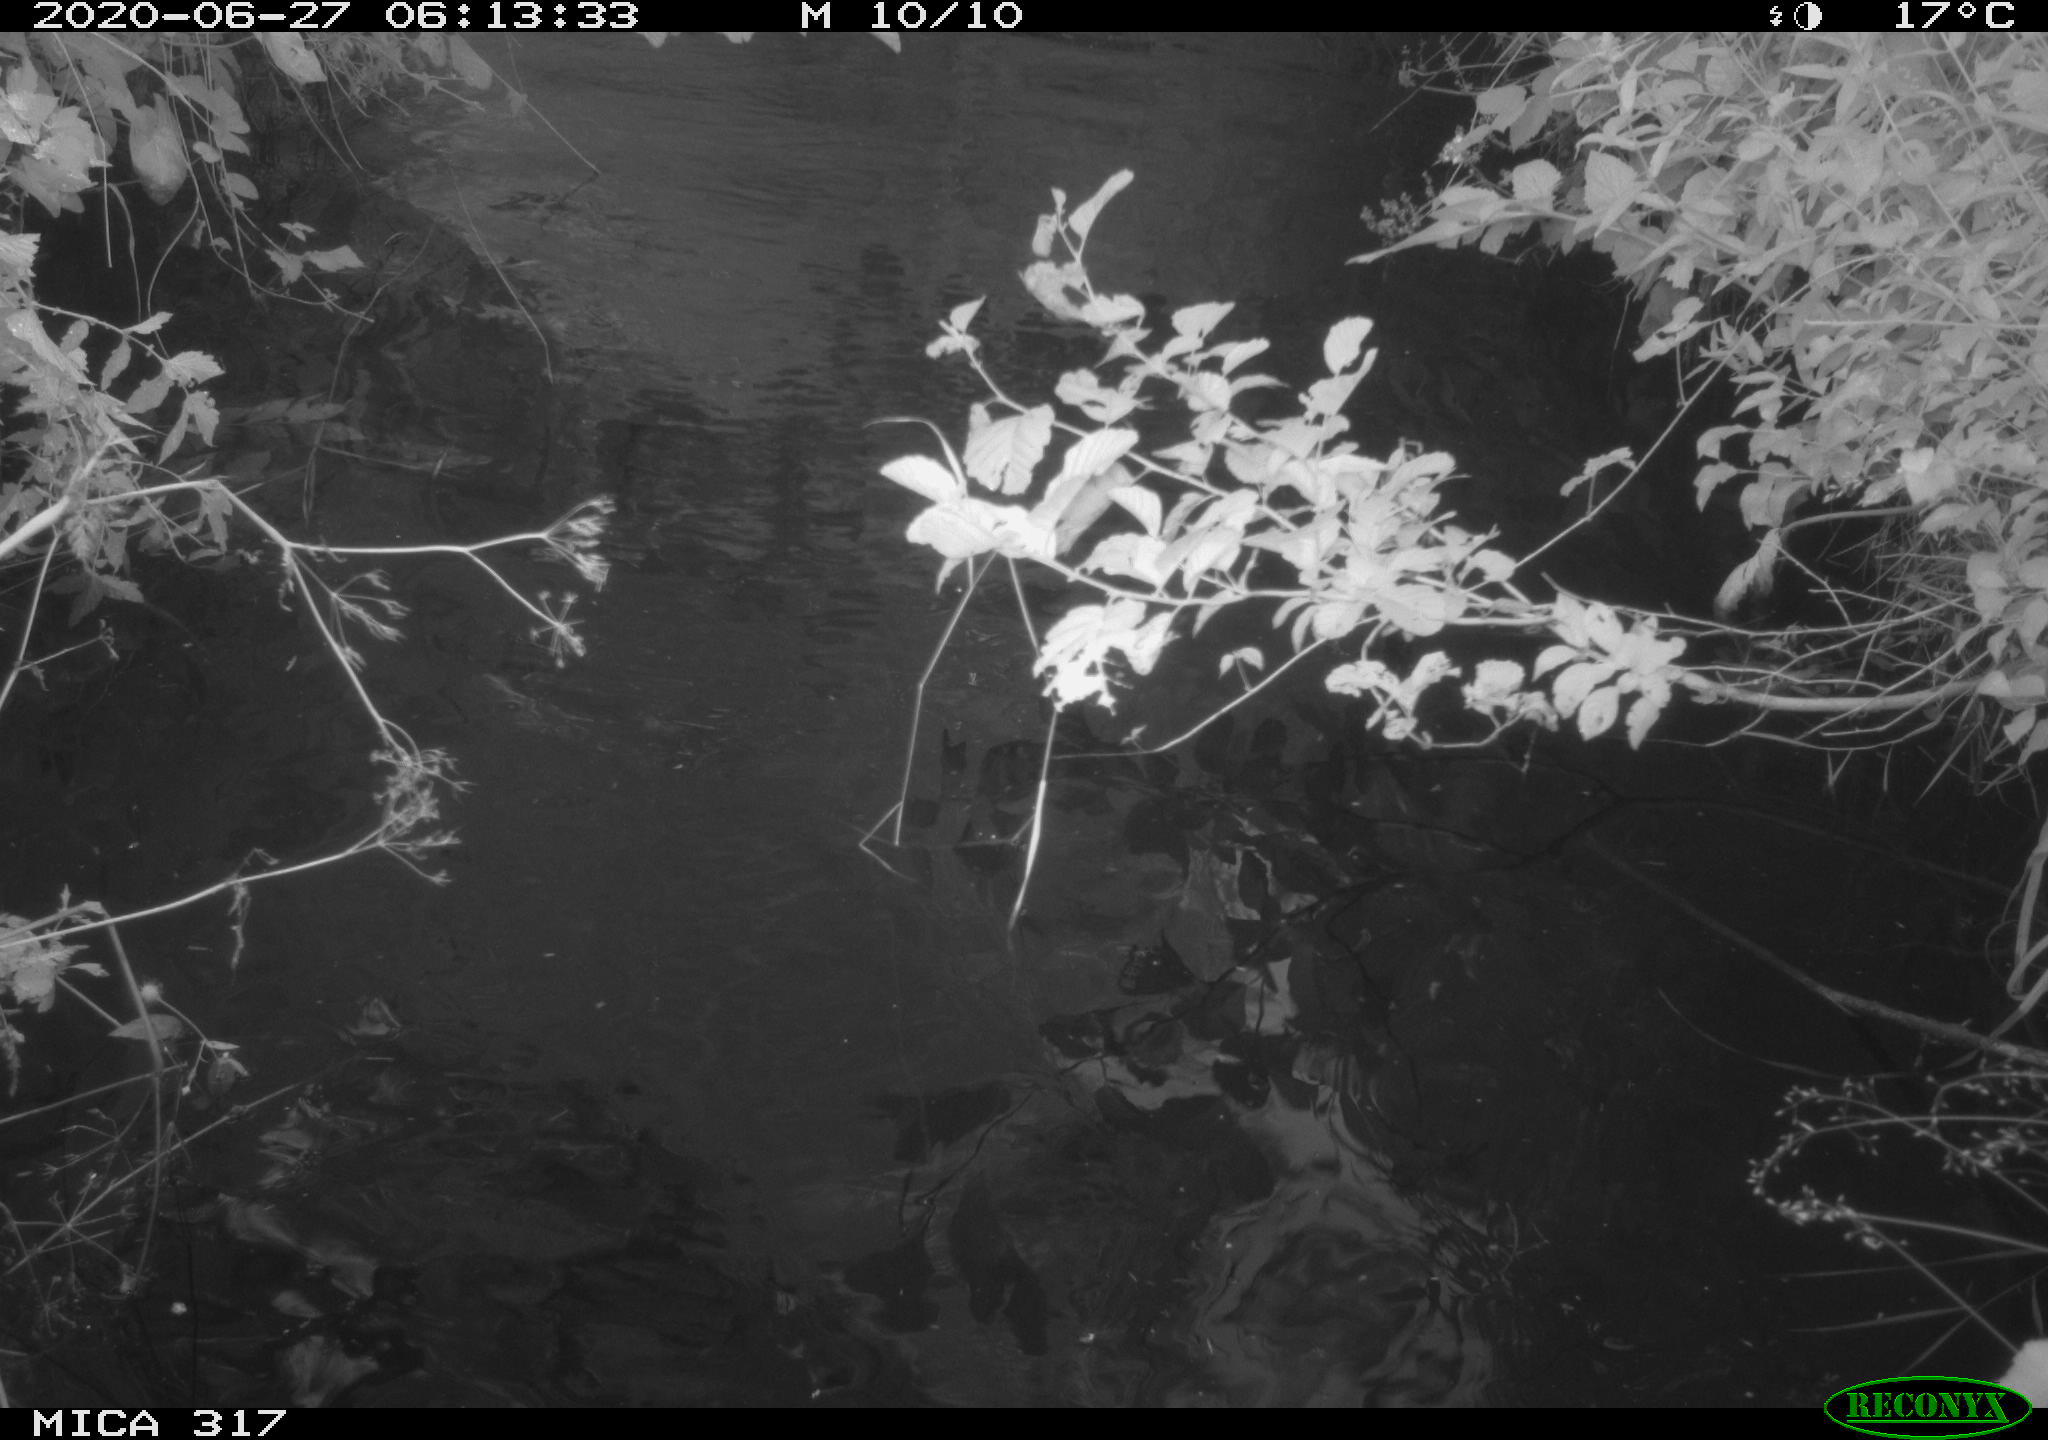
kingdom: Animalia
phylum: Chordata
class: Aves
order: Gruiformes
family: Rallidae
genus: Fulica
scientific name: Fulica atra
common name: Eurasian coot
